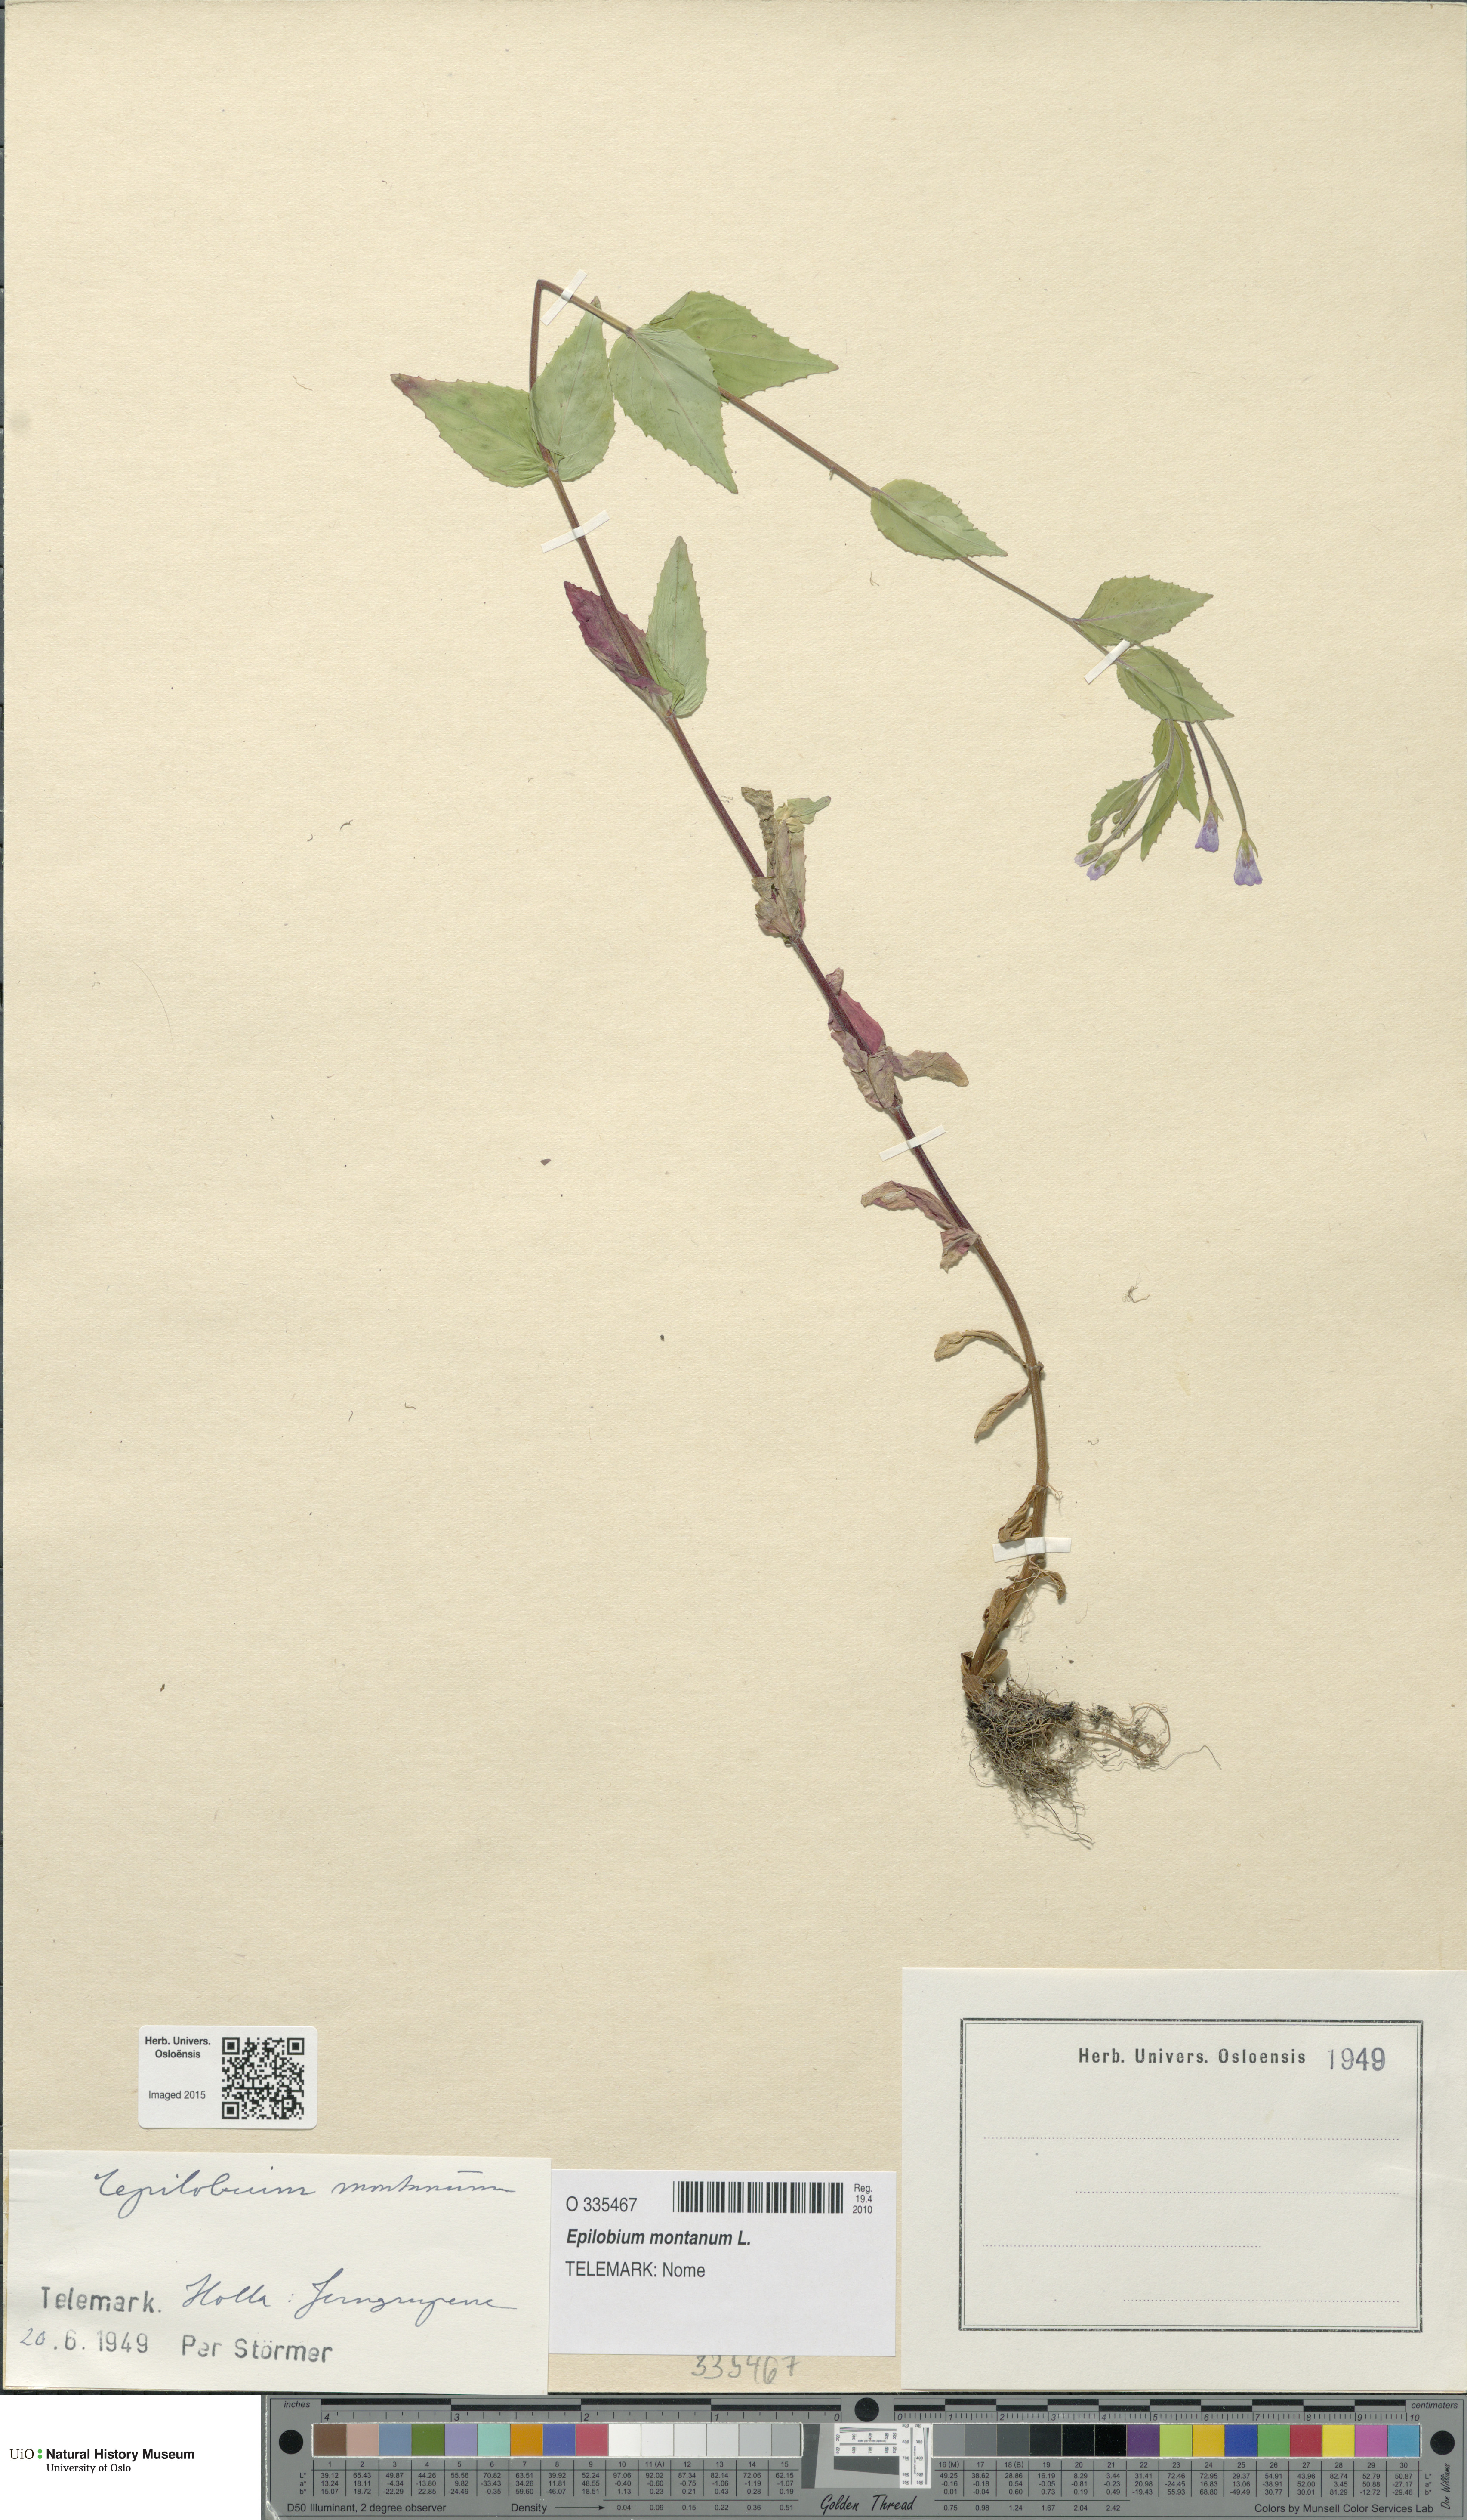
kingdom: Plantae
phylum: Tracheophyta
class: Magnoliopsida
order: Myrtales
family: Onagraceae
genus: Epilobium
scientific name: Epilobium montanum
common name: Broad-leaved willowherb
